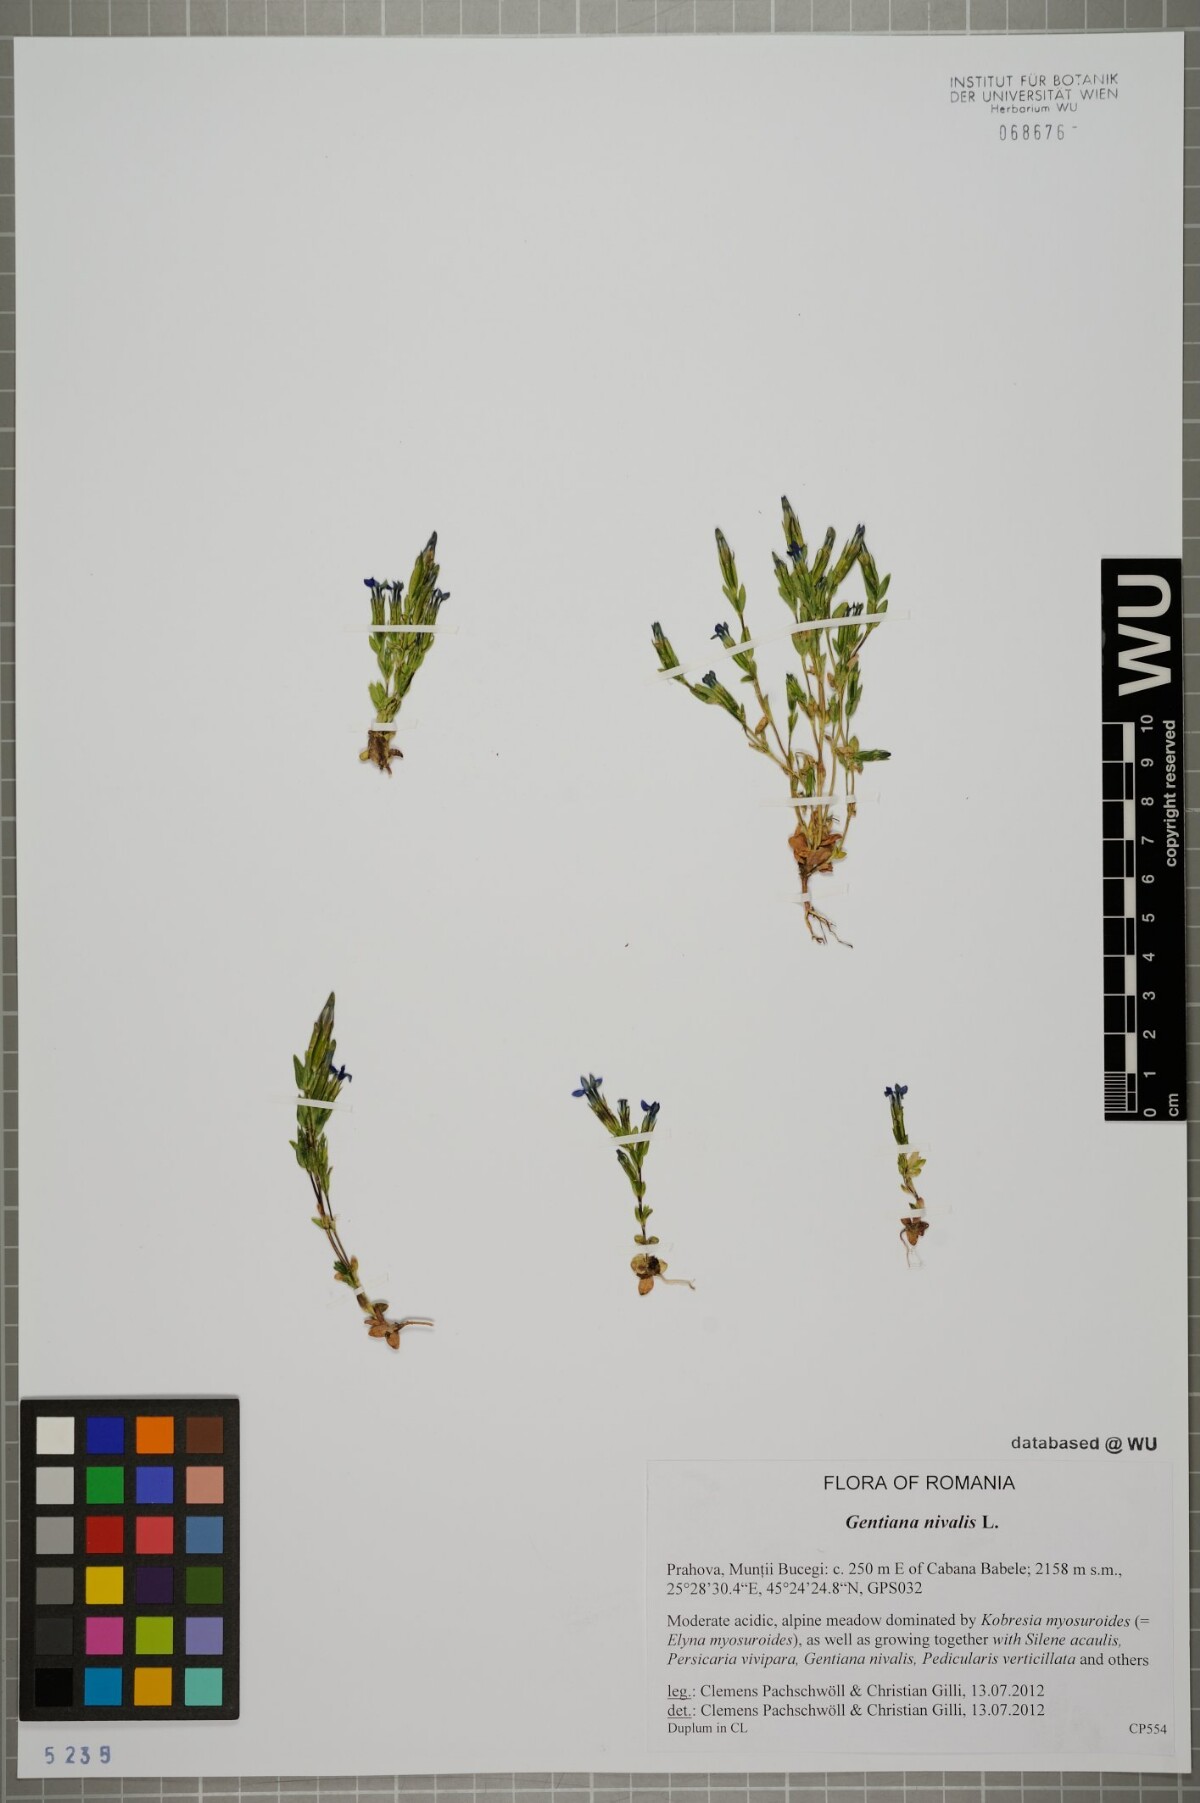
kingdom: Plantae
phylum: Tracheophyta
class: Magnoliopsida
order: Gentianales
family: Gentianaceae
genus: Gentiana
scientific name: Gentiana nivalis
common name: Alpine gentian
